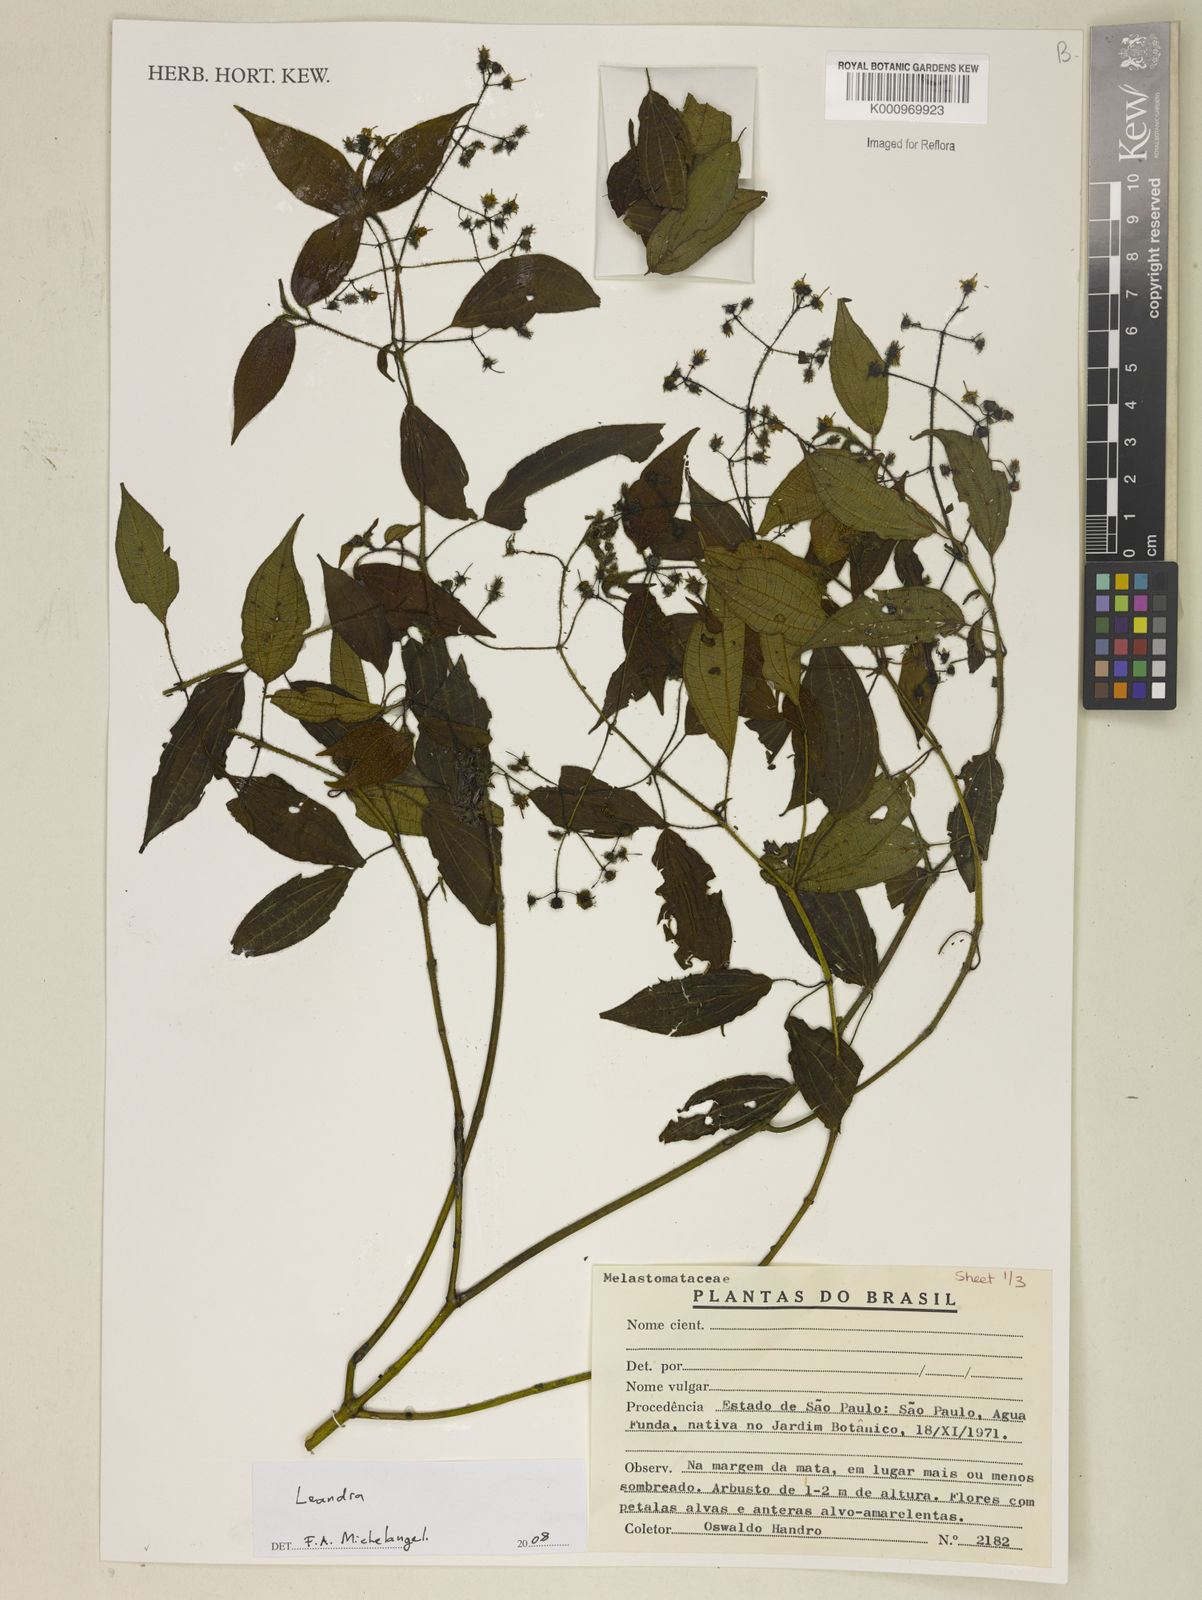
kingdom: Plantae
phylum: Tracheophyta
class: Magnoliopsida
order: Myrtales
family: Melastomataceae
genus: Miconia
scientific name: Miconia
